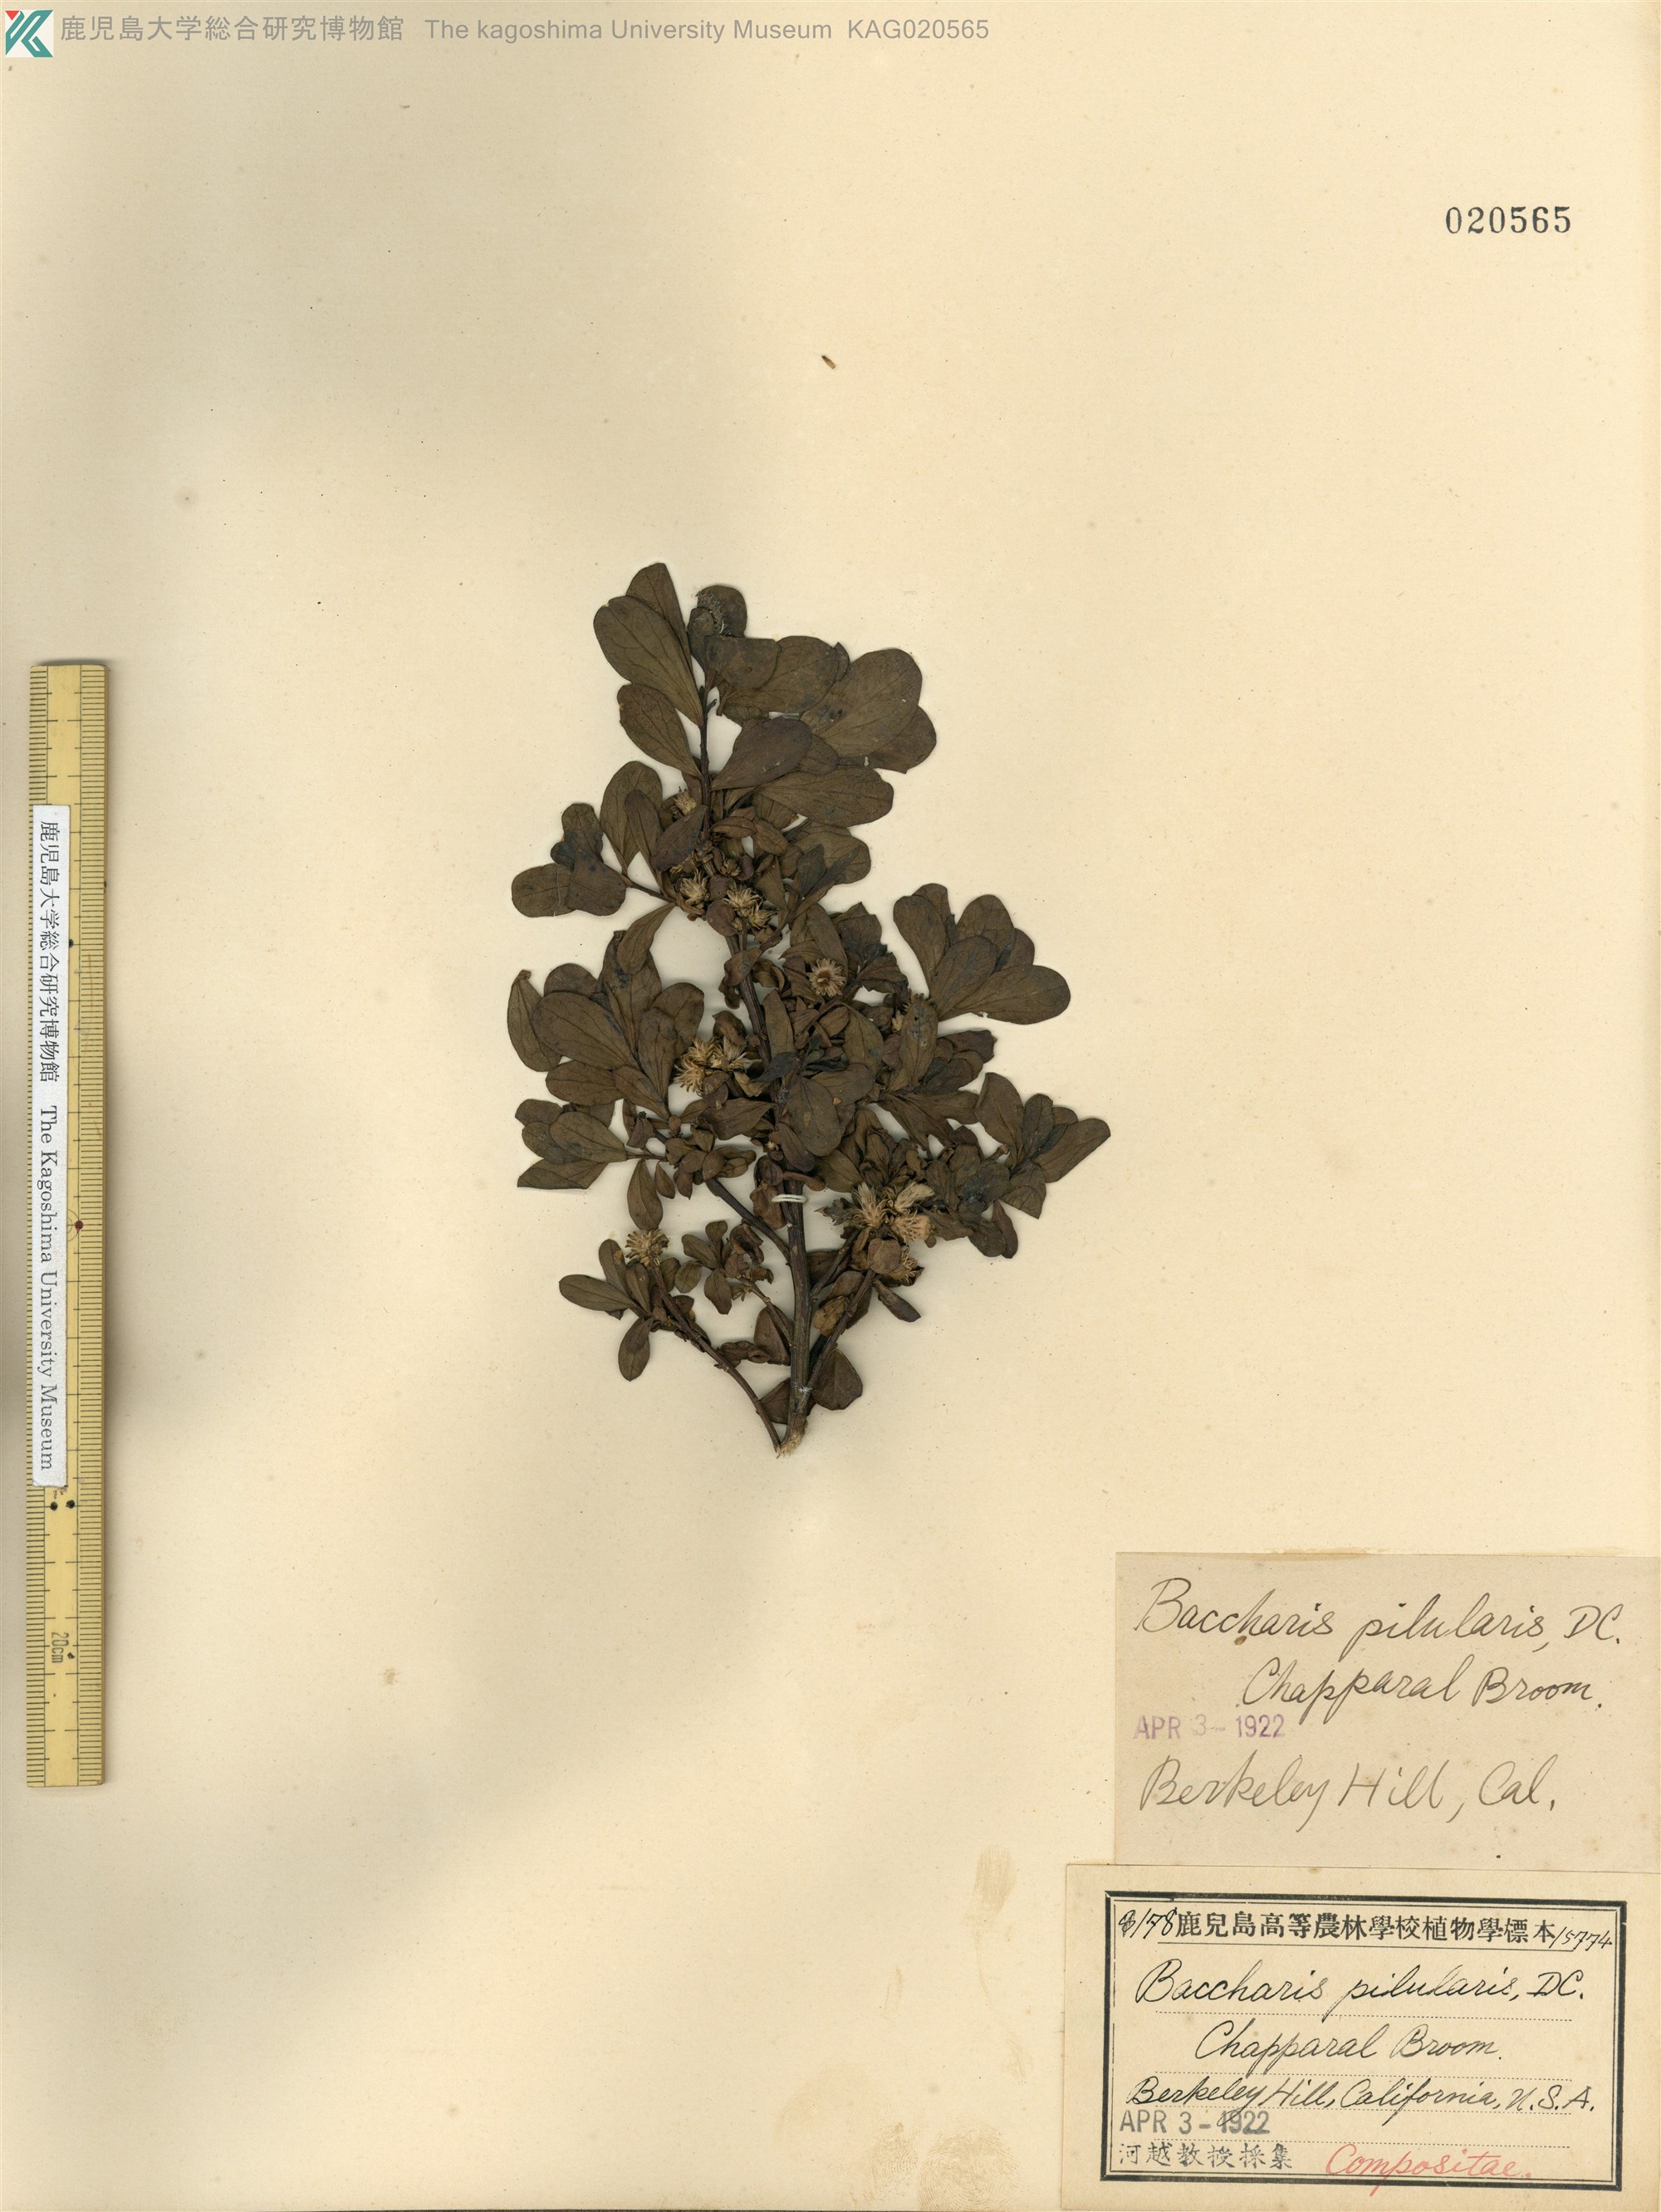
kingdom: Plantae
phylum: Tracheophyta
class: Magnoliopsida
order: Asterales
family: Asteraceae
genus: Baccharis
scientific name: Baccharis pilularis
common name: Coyotebrush
